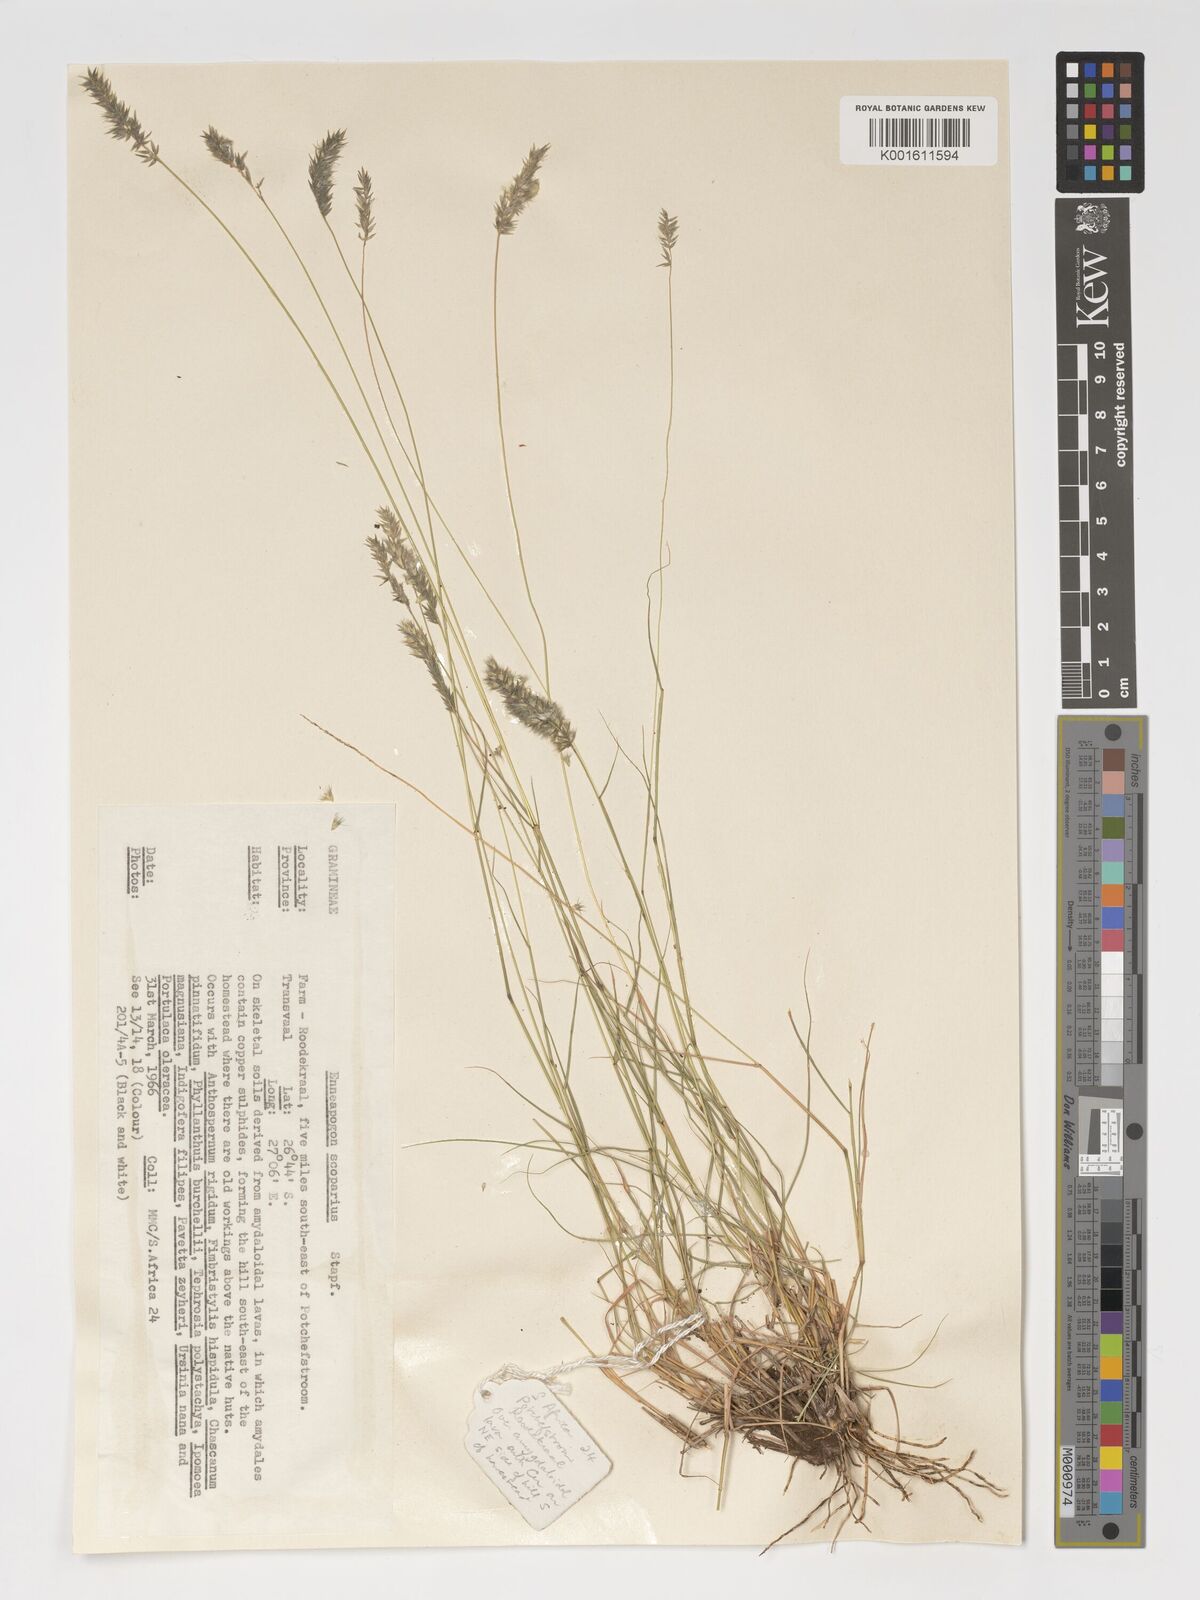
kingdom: Plantae
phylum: Tracheophyta
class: Liliopsida
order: Poales
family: Poaceae
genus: Enneapogon
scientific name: Enneapogon scoparius
